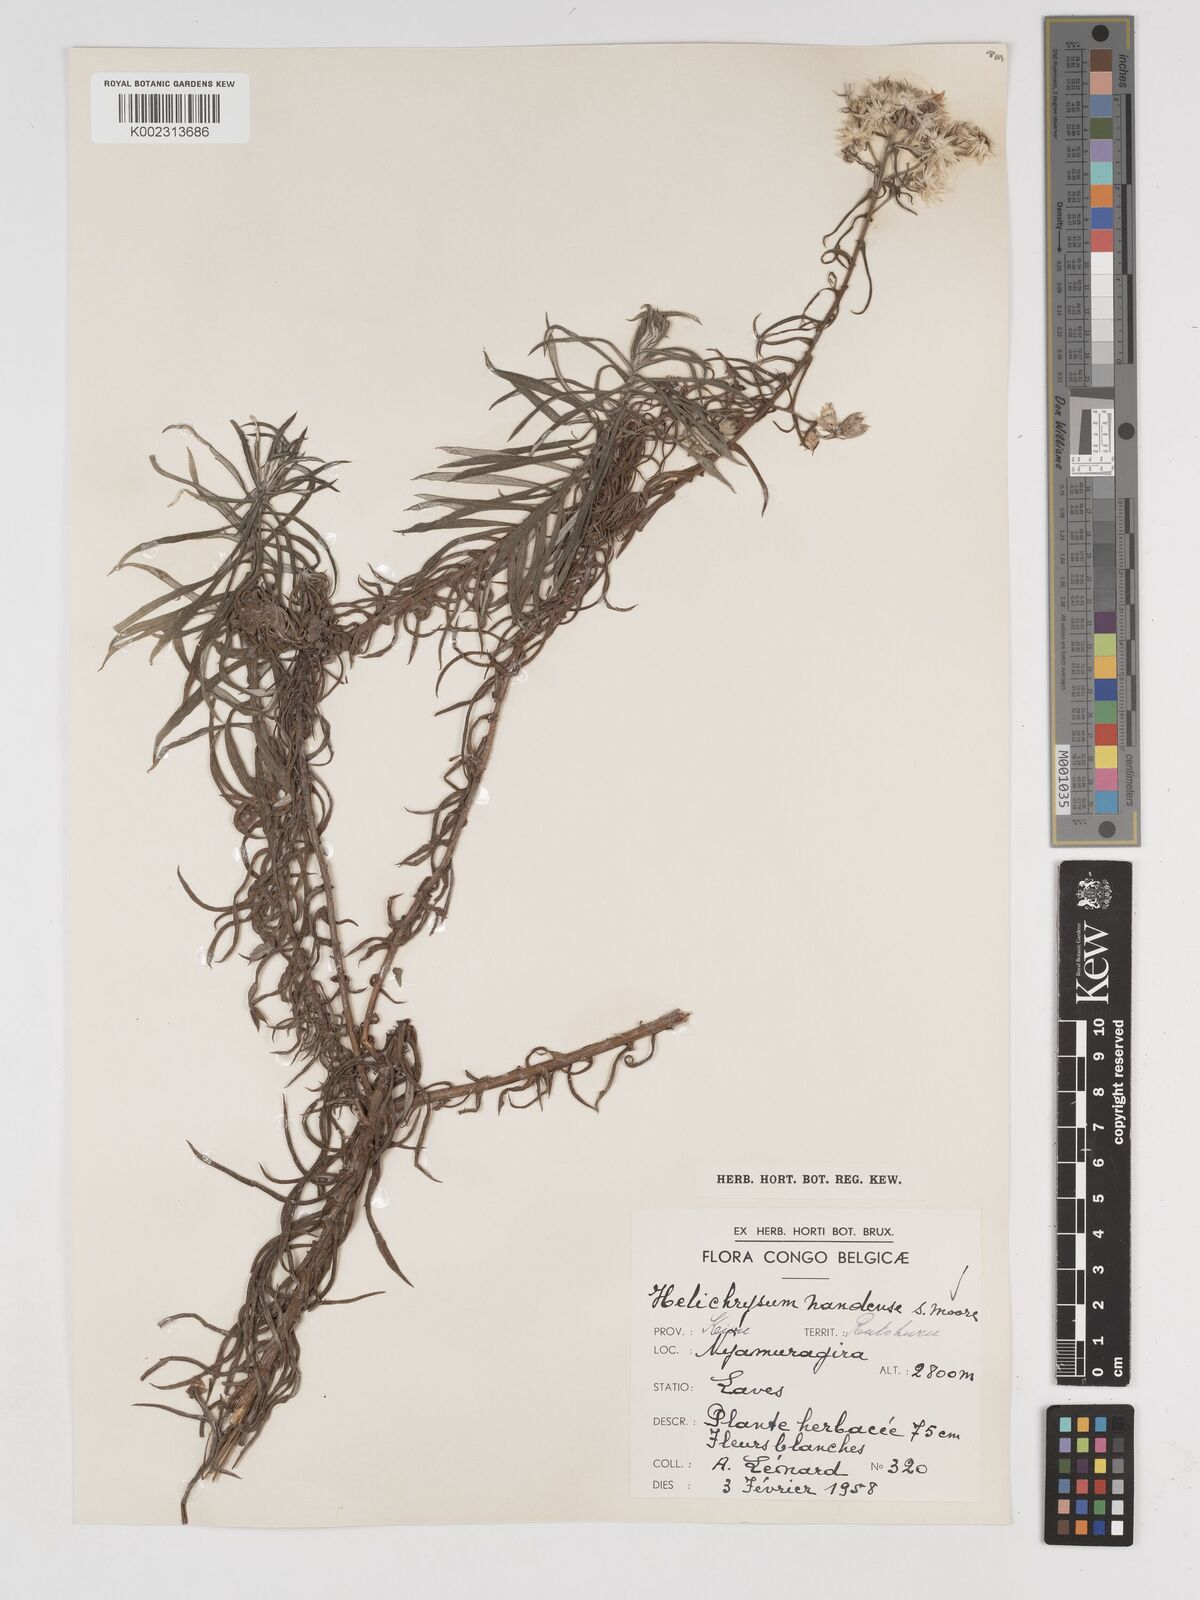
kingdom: Plantae
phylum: Tracheophyta
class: Magnoliopsida
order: Asterales
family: Asteraceae
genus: Helichrysum
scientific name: Helichrysum argyranthum
